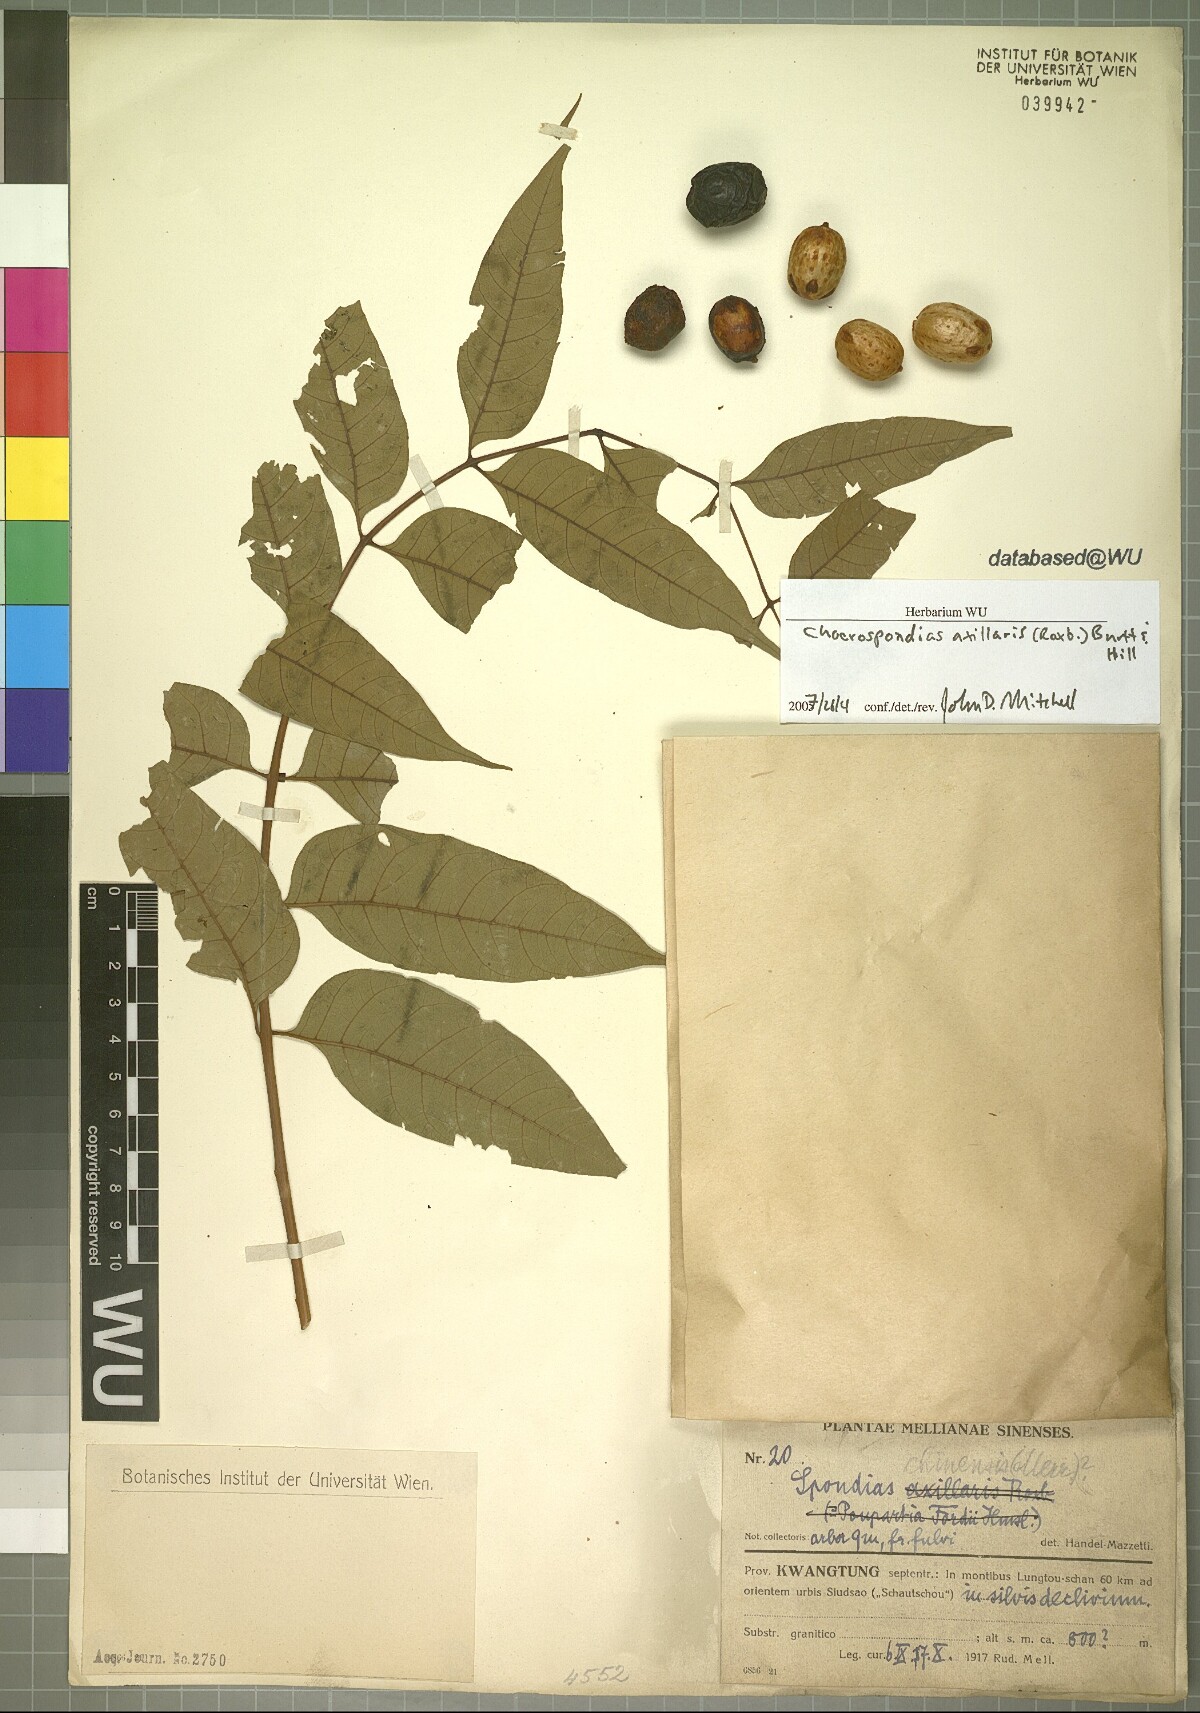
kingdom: Plantae
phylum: Tracheophyta
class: Magnoliopsida
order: Sapindales
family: Anacardiaceae
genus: Choerospondias
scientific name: Choerospondias axillaris
